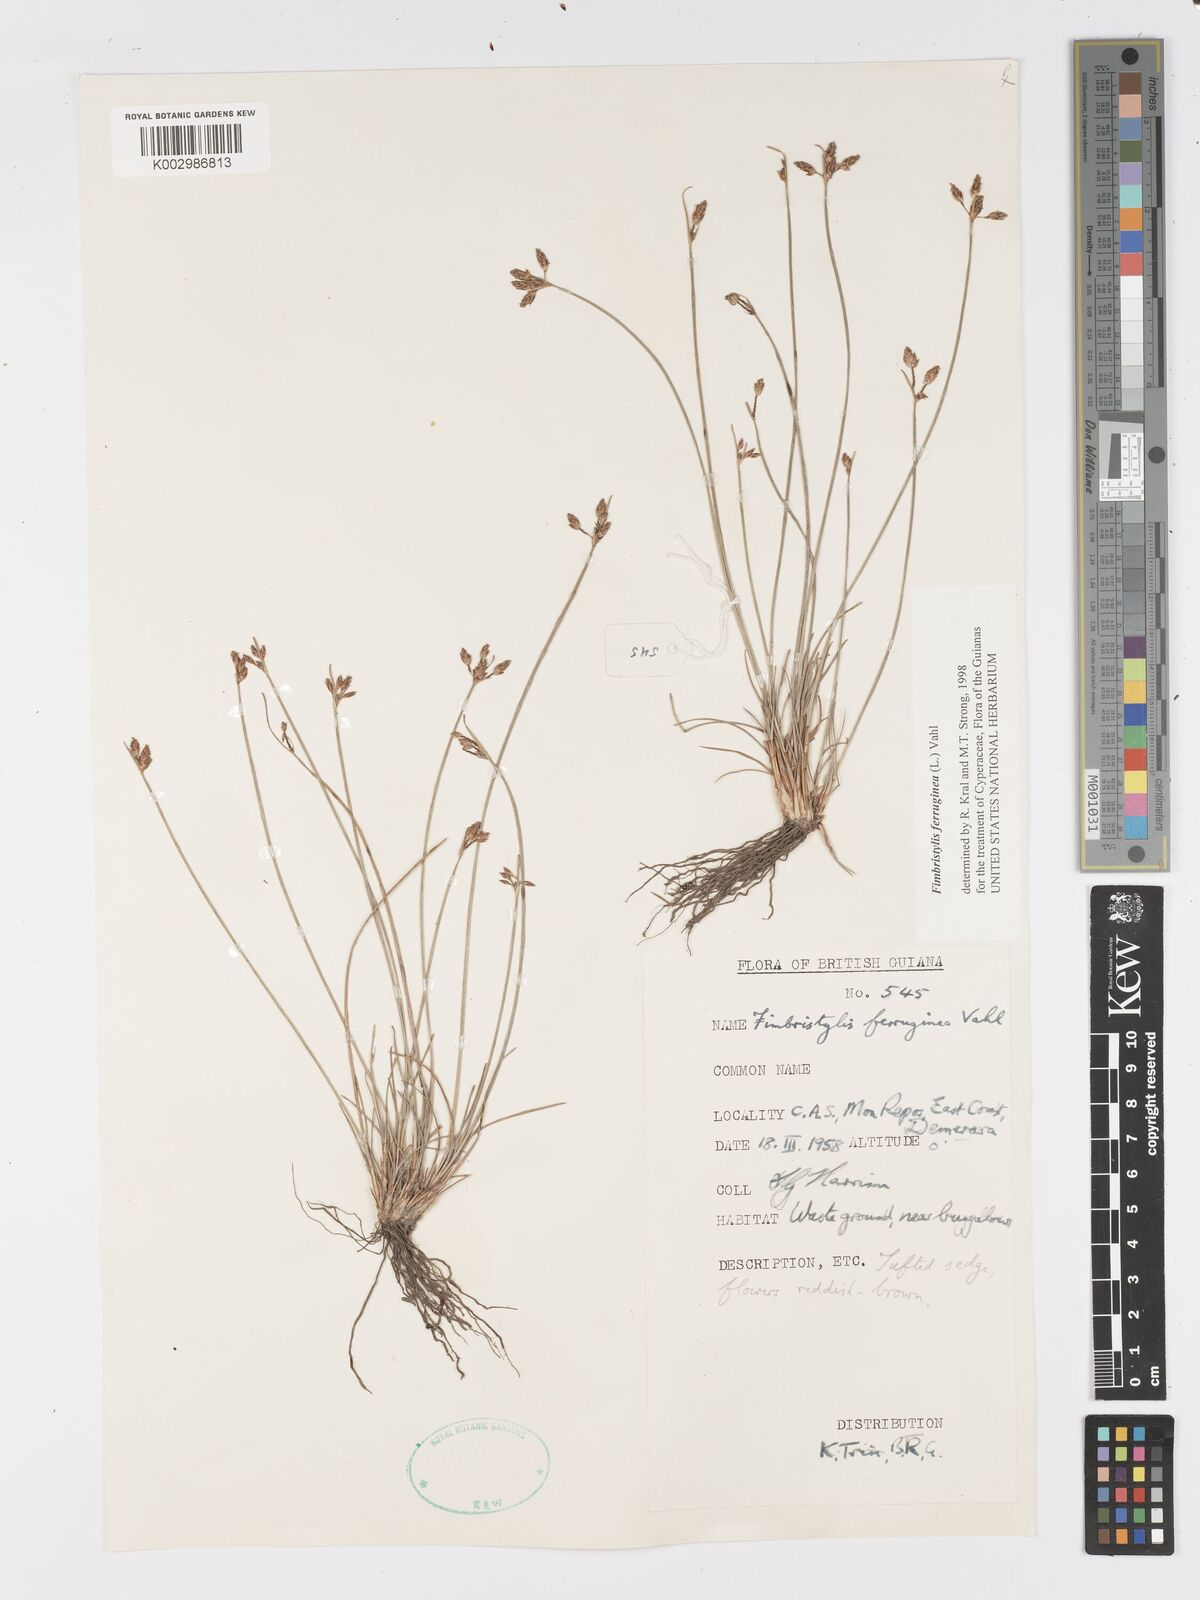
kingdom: Plantae
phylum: Tracheophyta
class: Liliopsida
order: Poales
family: Cyperaceae
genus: Fimbristylis
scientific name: Fimbristylis ferruginea
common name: West indian fimbry
